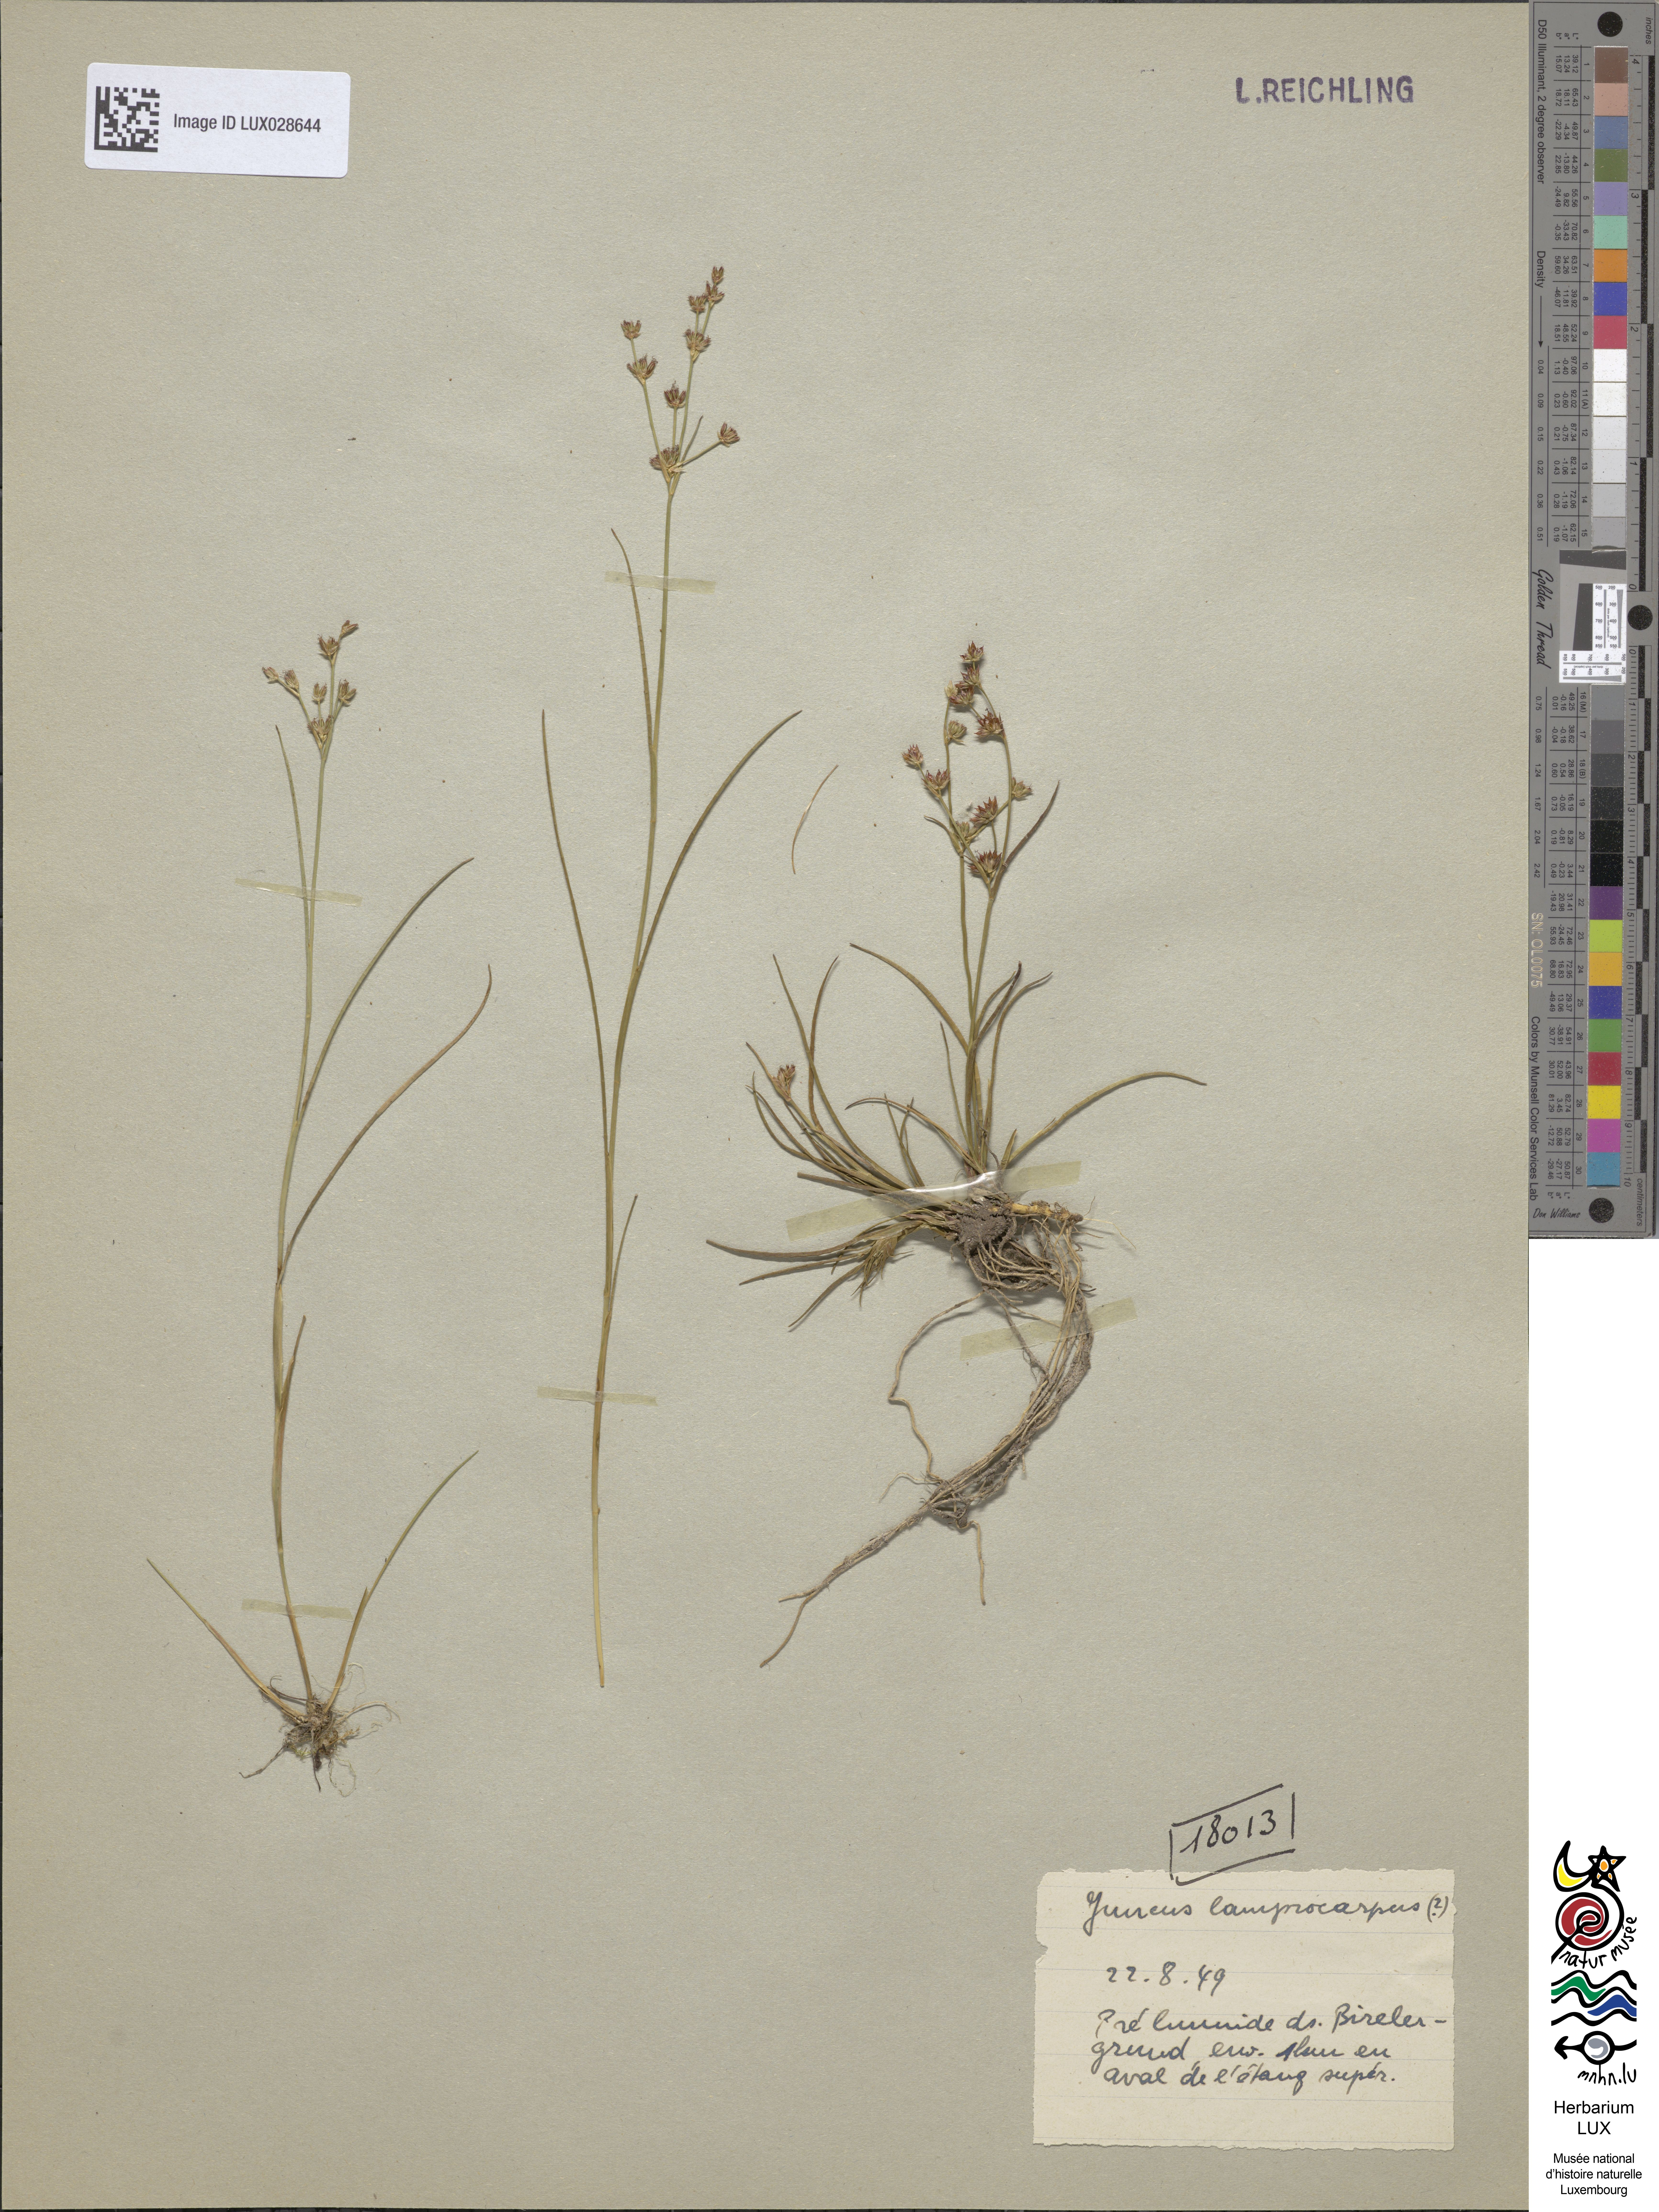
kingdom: Plantae
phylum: Tracheophyta
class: Liliopsida
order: Poales
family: Juncaceae
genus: Juncus
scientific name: Juncus articulatus
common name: Jointed rush
